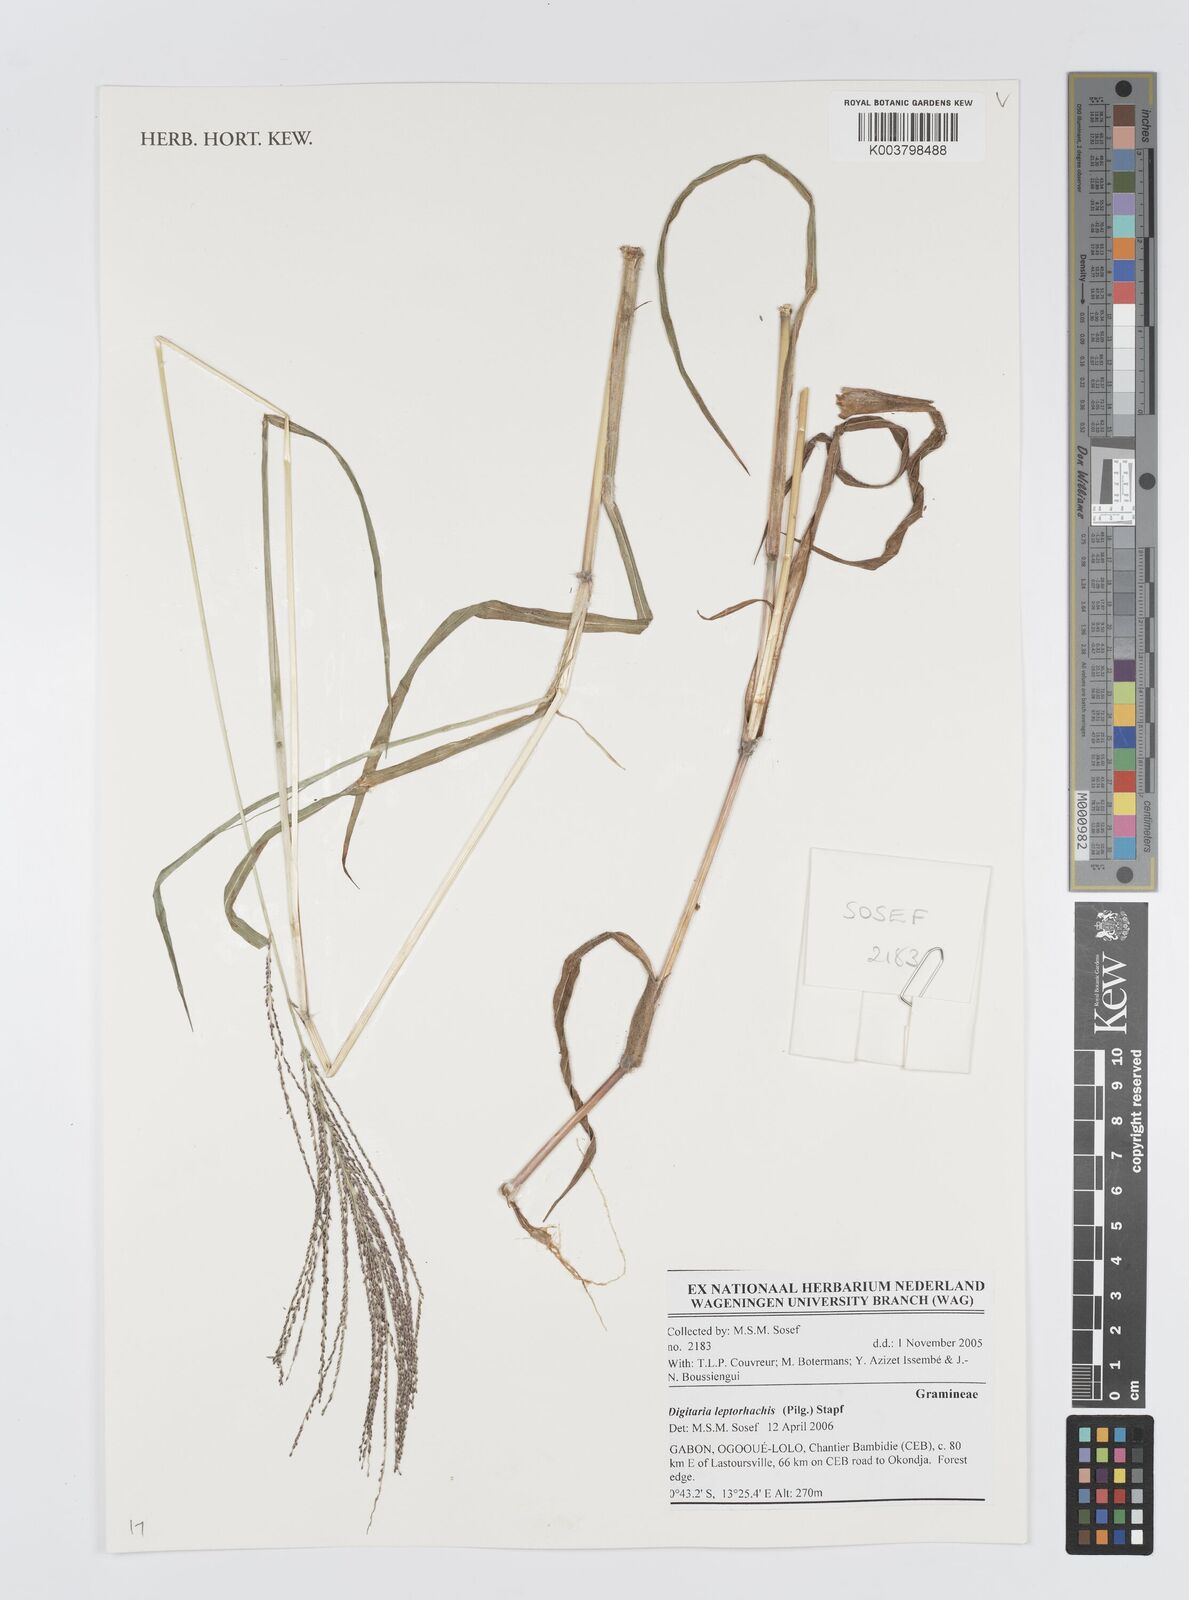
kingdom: Plantae
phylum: Tracheophyta
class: Liliopsida
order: Poales
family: Poaceae
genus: Digitaria
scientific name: Digitaria leptorhachis
